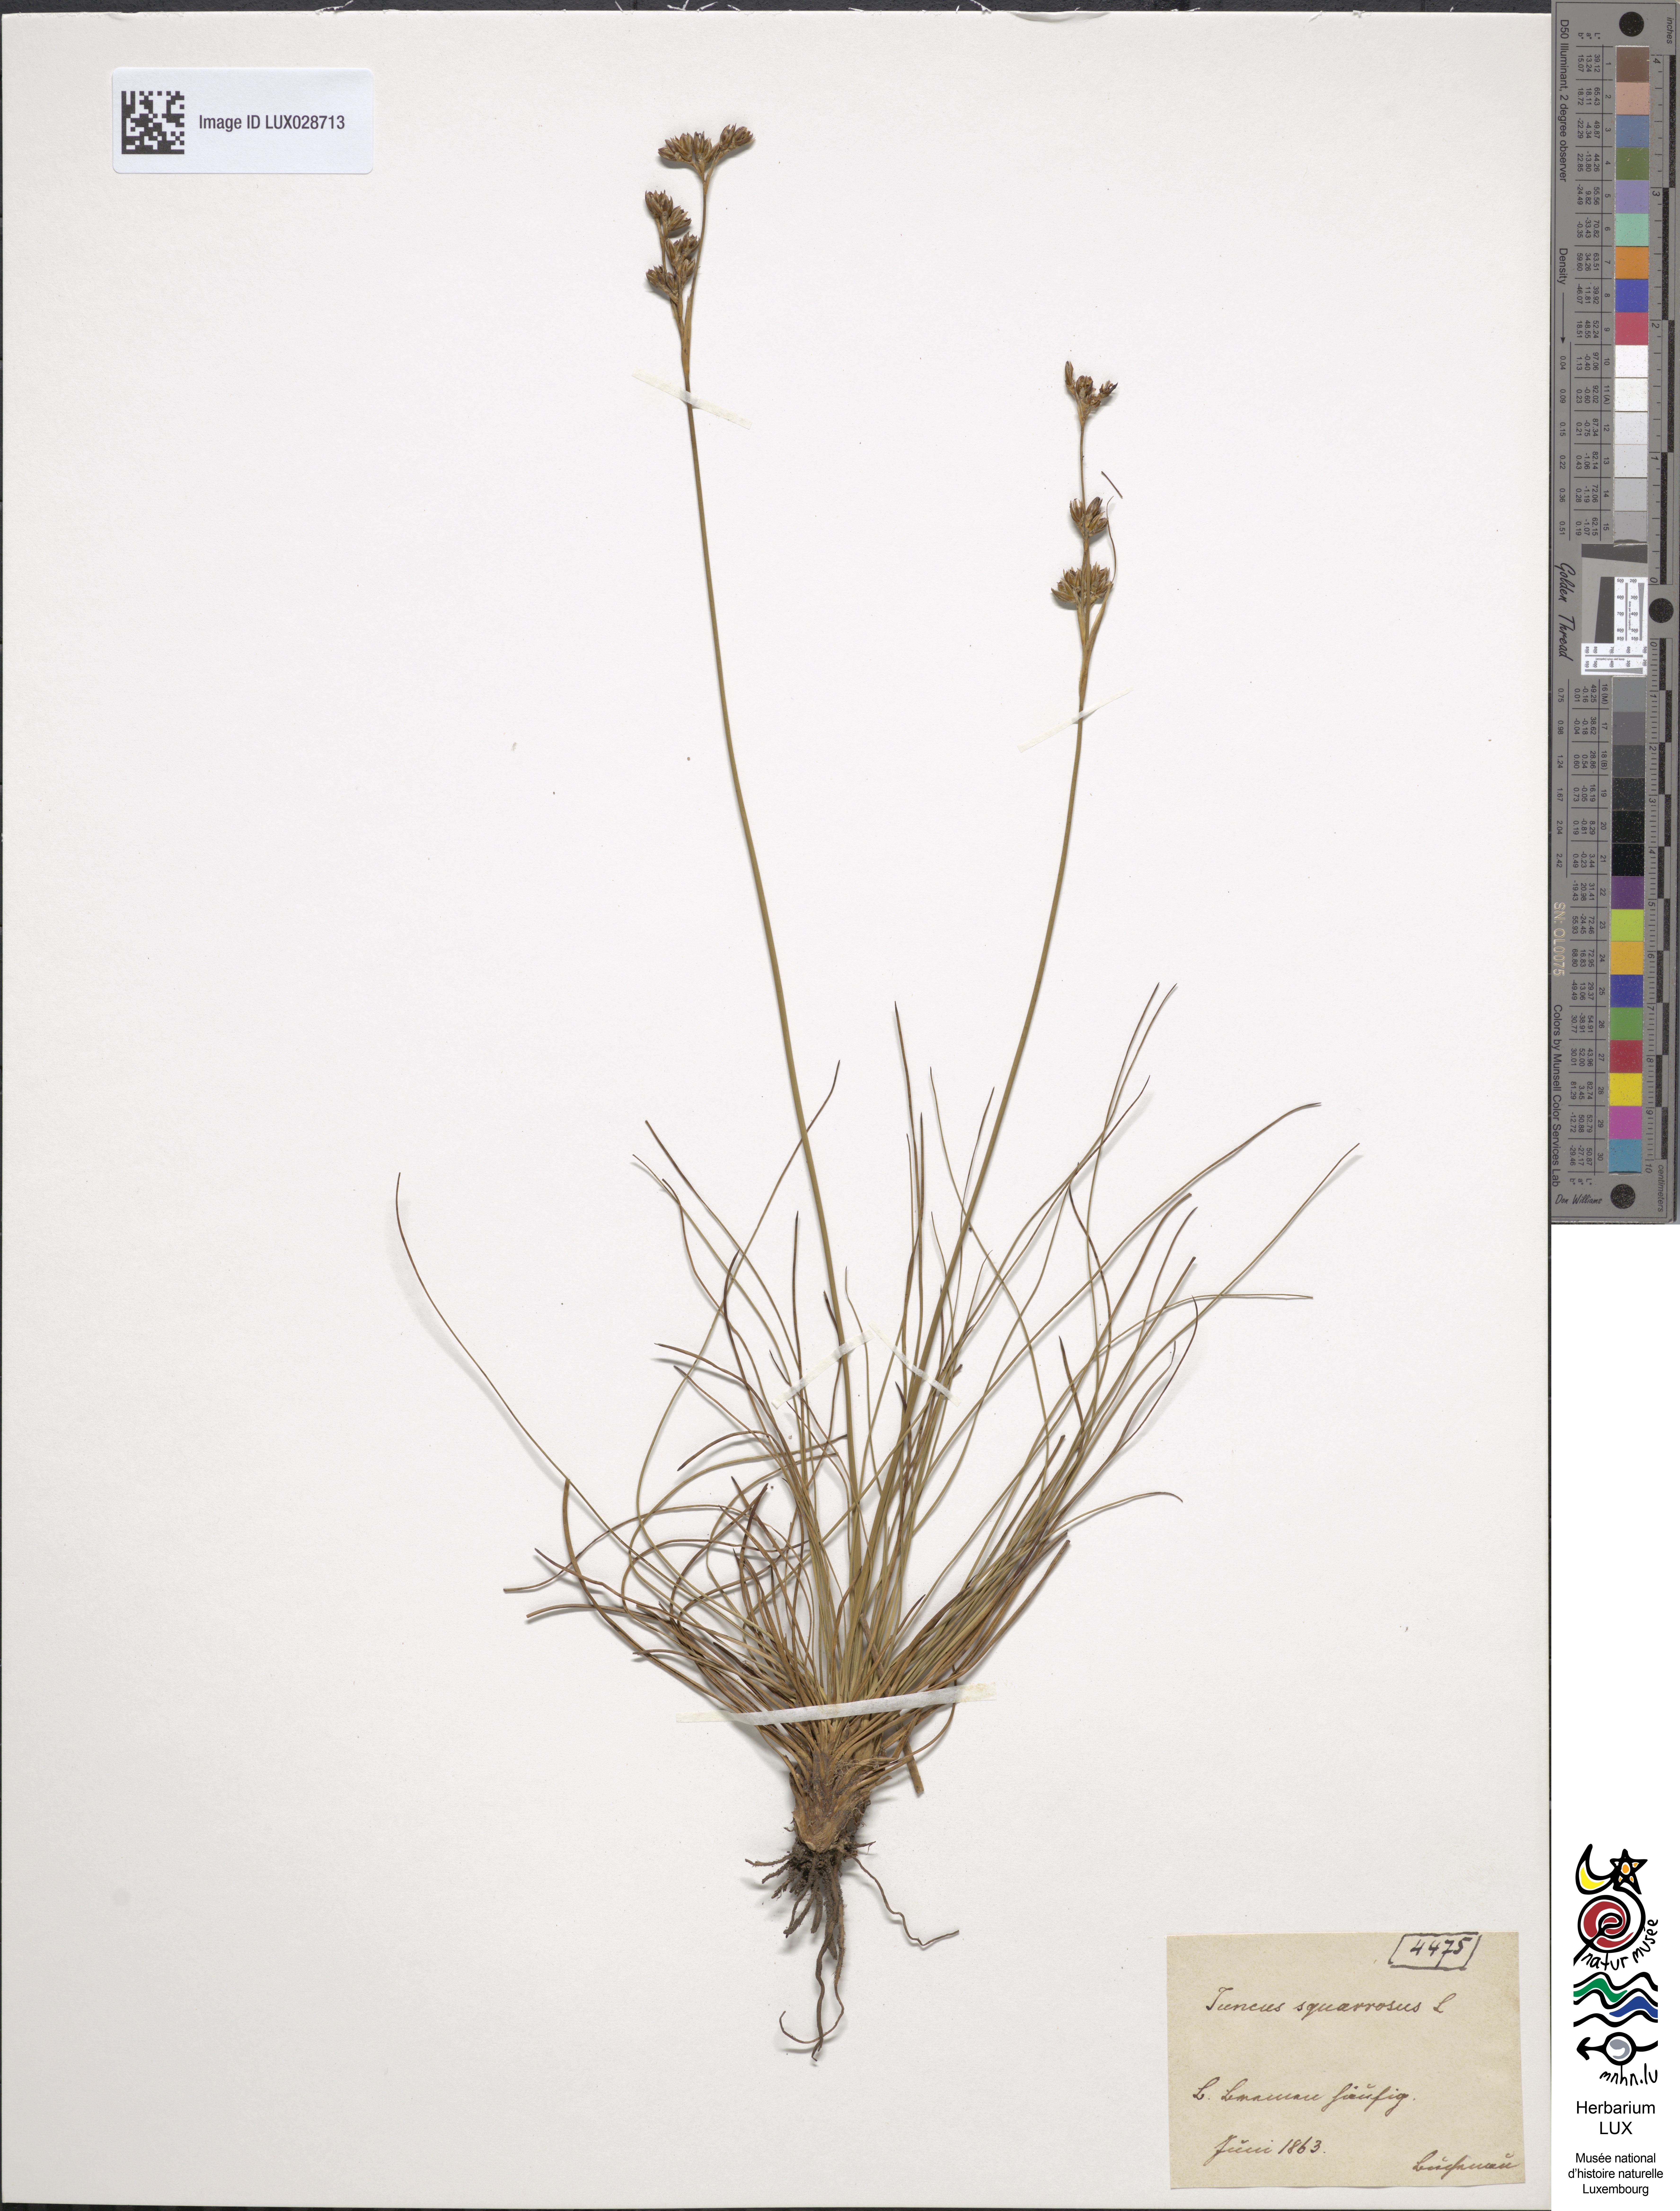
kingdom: Plantae
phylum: Tracheophyta
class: Liliopsida
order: Poales
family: Juncaceae
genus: Juncus
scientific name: Juncus squarrosus
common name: Heath rush
